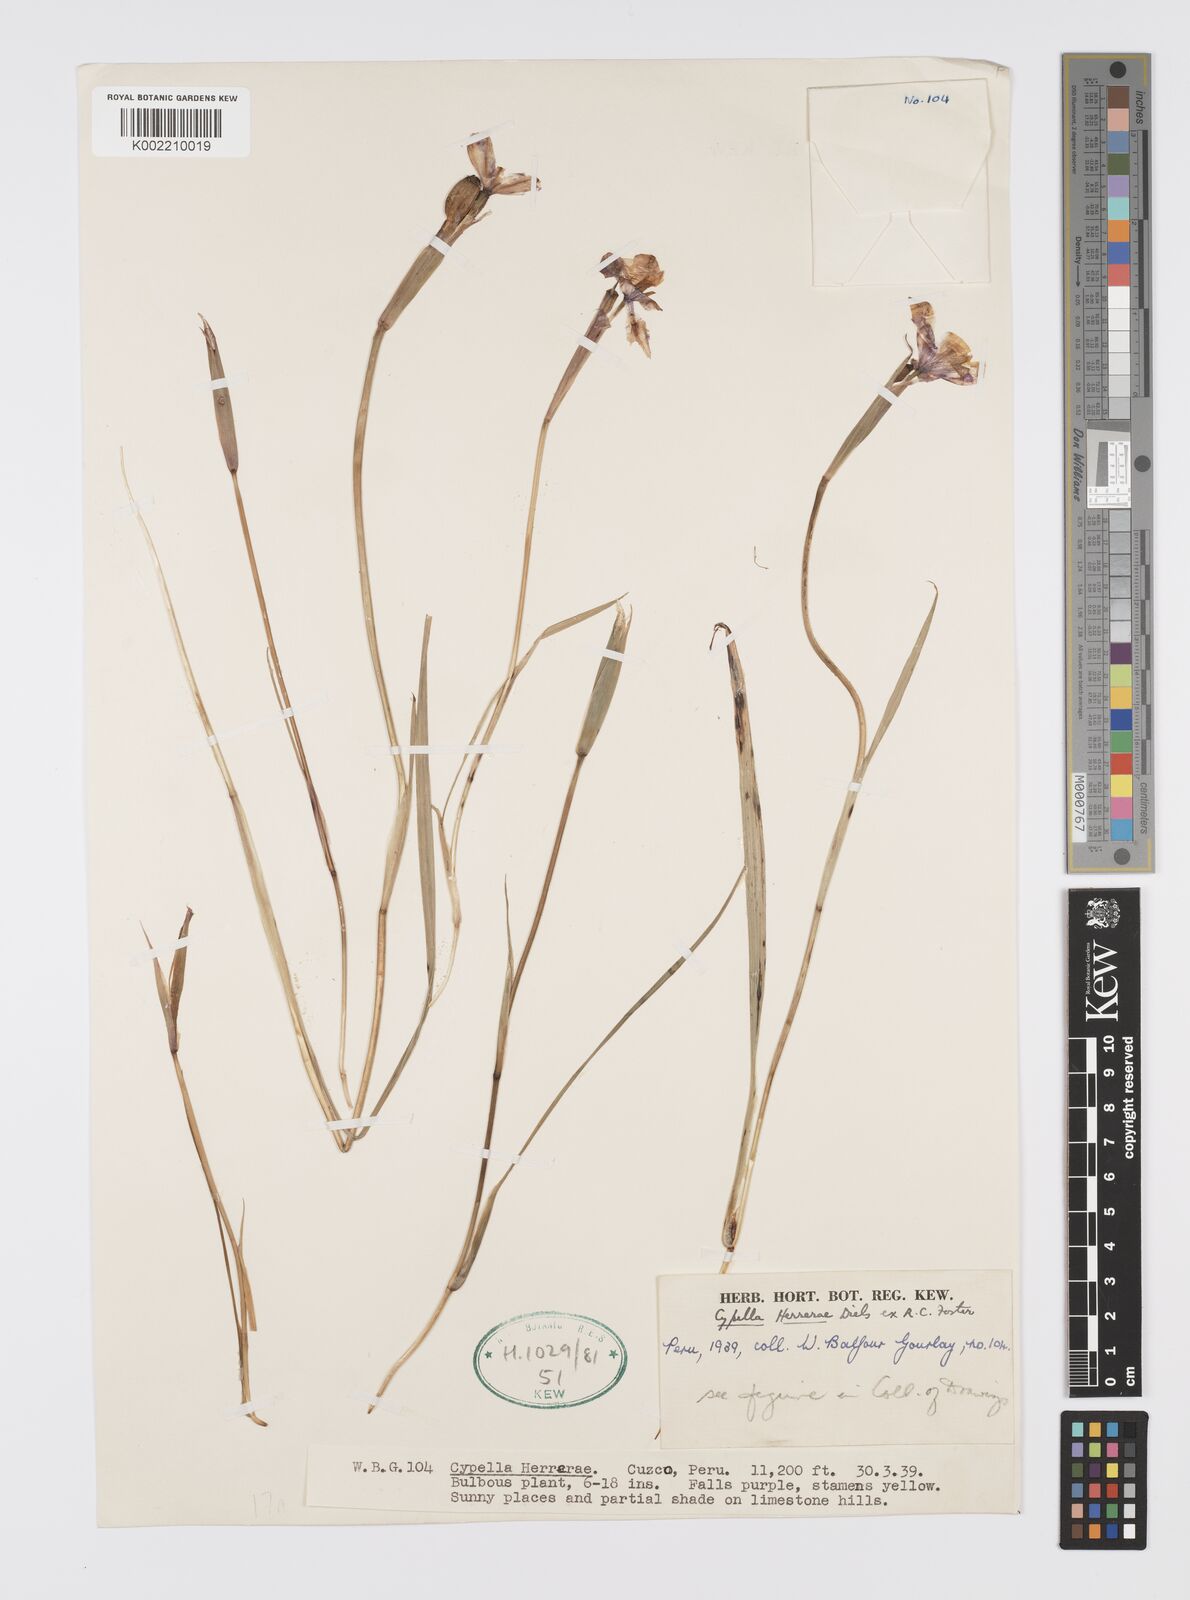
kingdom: Plantae
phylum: Tracheophyta
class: Liliopsida
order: Asparagales
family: Iridaceae
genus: Hesperoxiphion
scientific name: Hesperoxiphion herrerae
